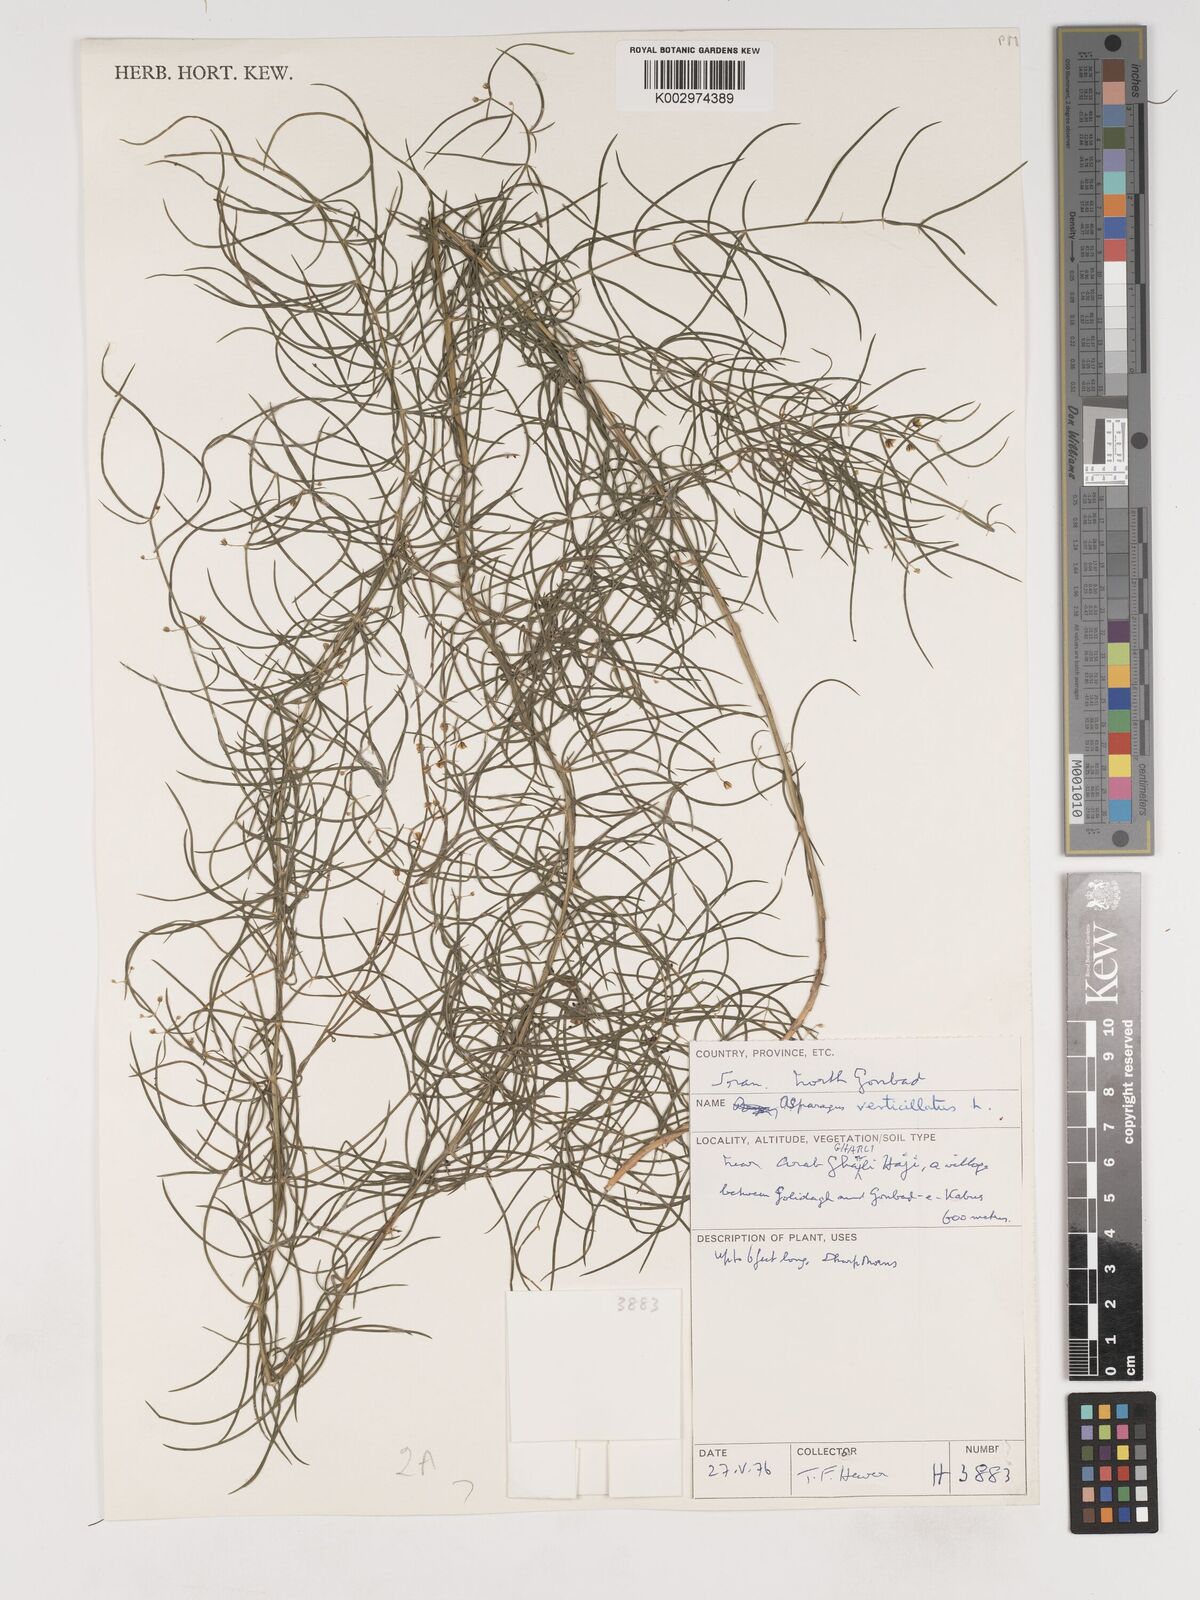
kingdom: Plantae
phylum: Tracheophyta
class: Liliopsida
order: Asparagales
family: Asparagaceae
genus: Asparagus
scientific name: Asparagus verticillatus
